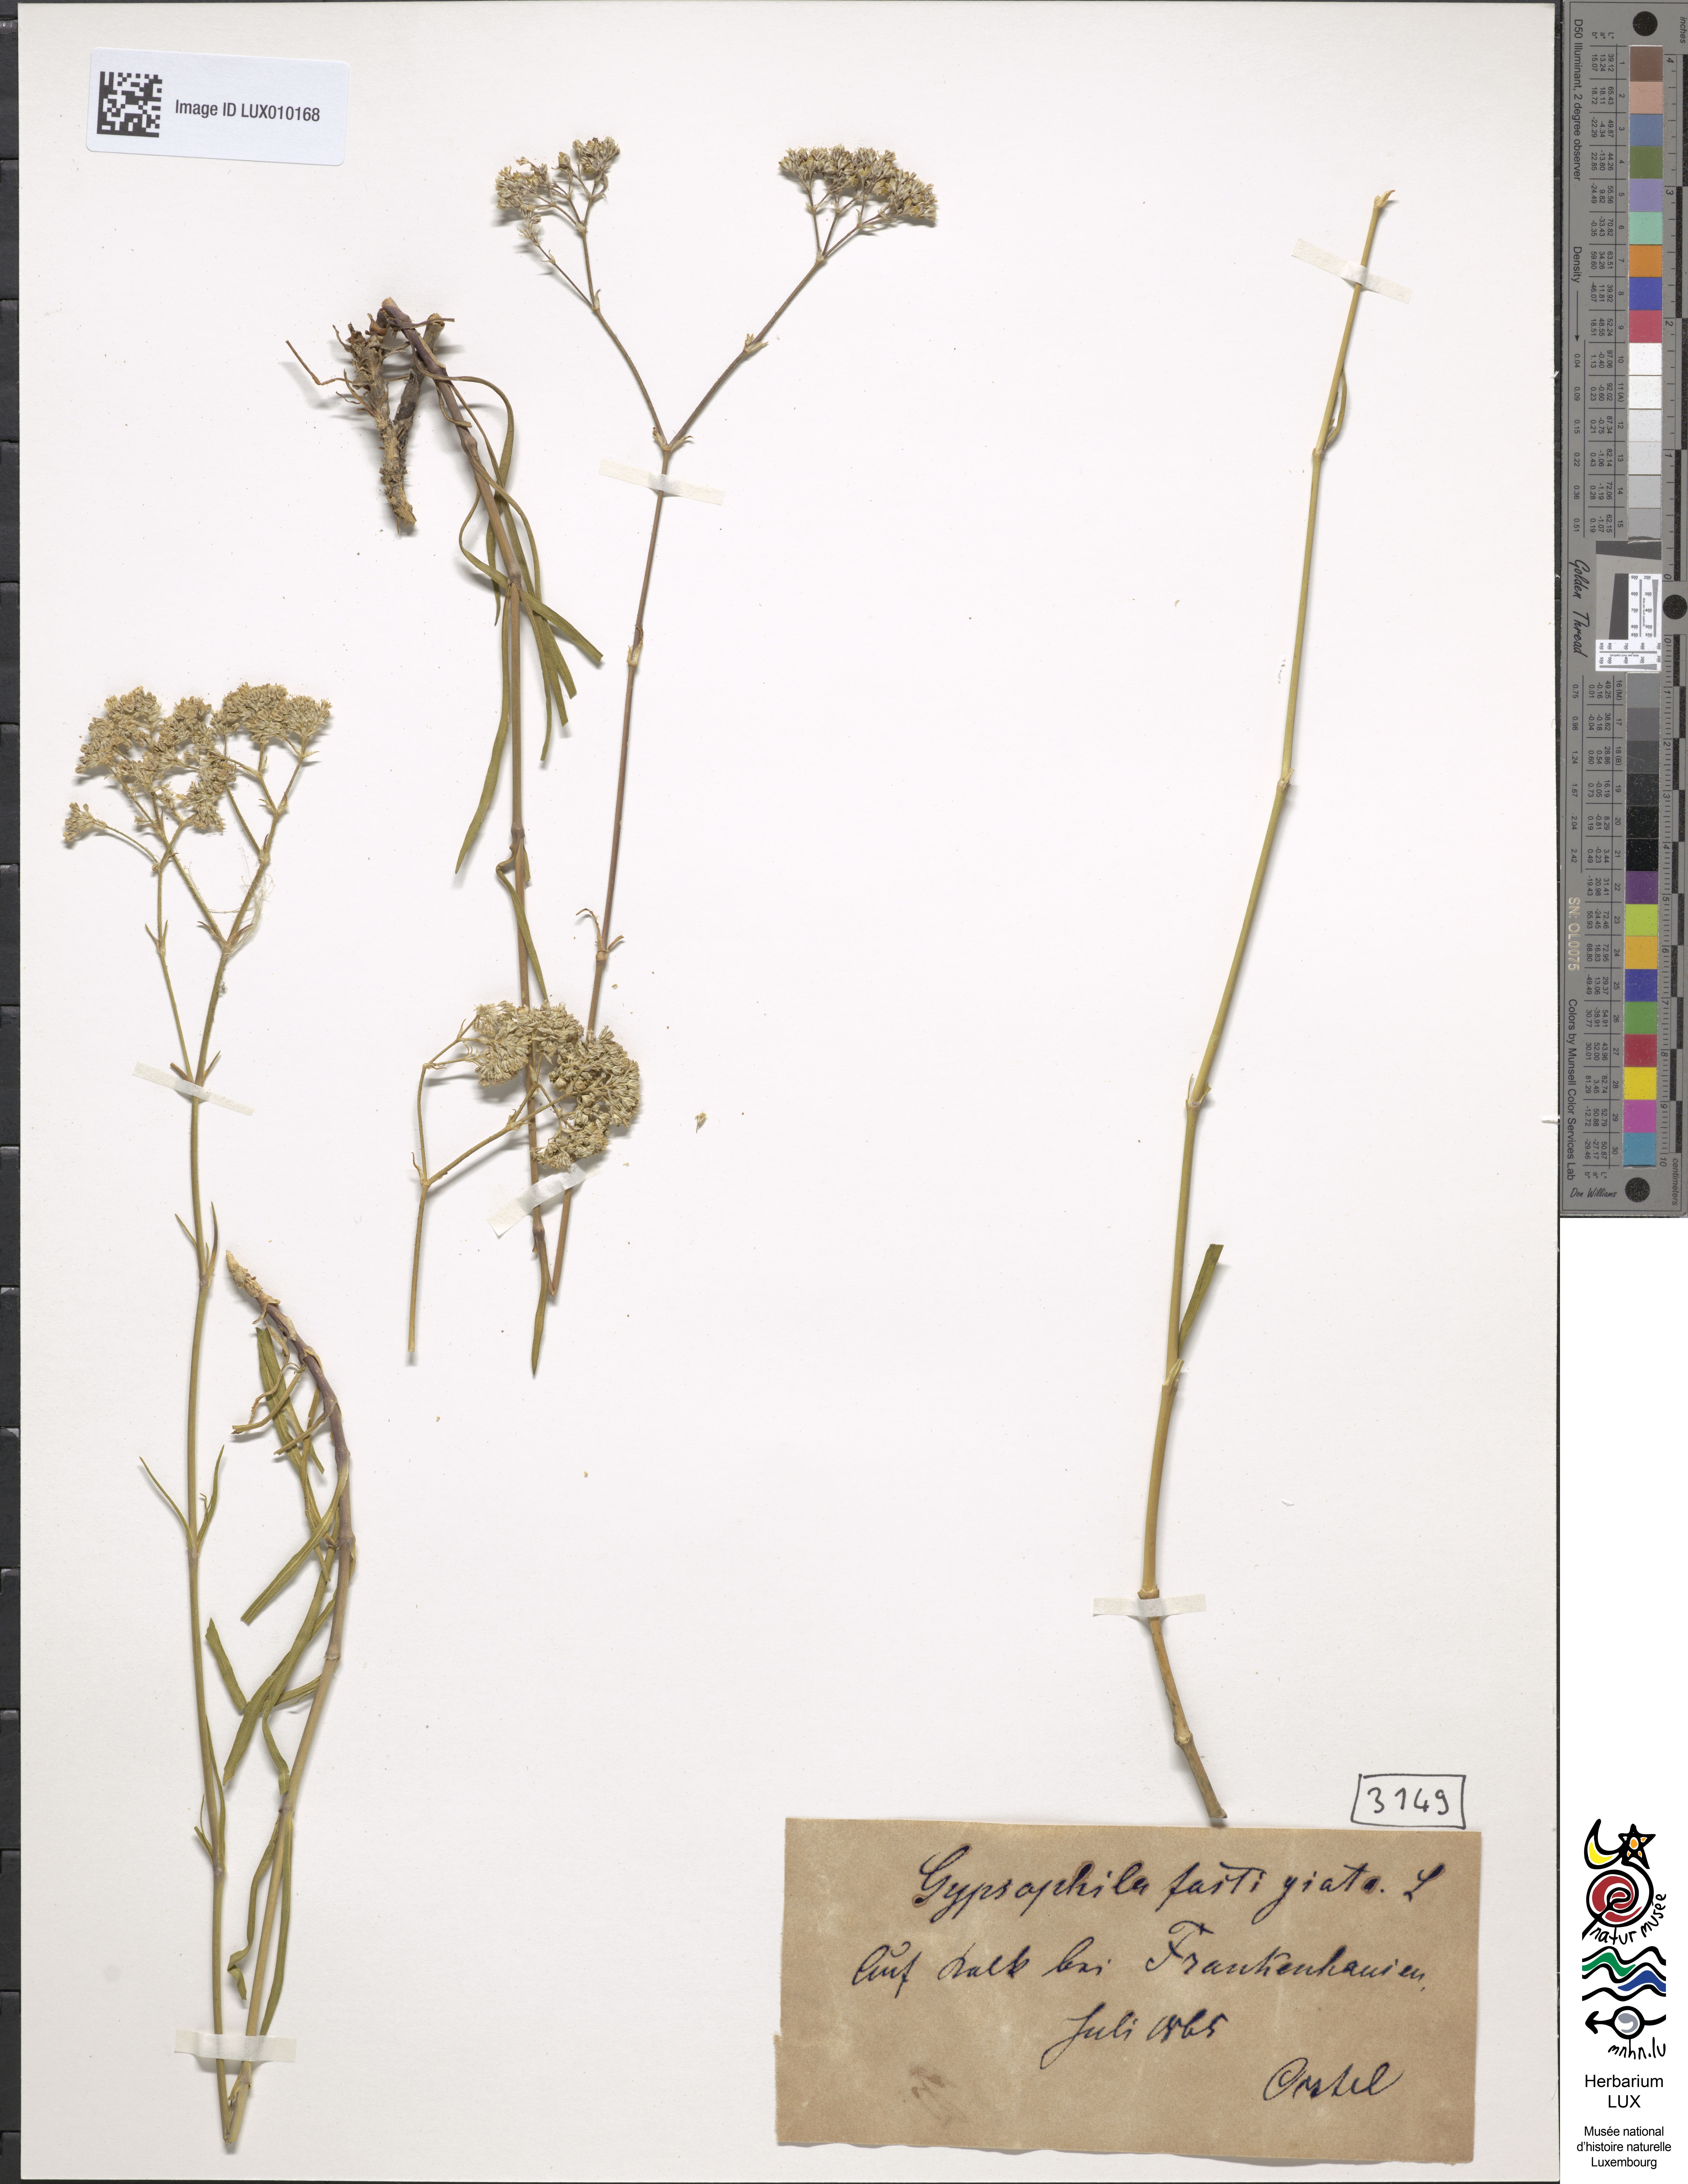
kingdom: Plantae
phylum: Tracheophyta
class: Magnoliopsida
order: Caryophyllales
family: Caryophyllaceae
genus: Gypsophila
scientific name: Gypsophila fastigiata
